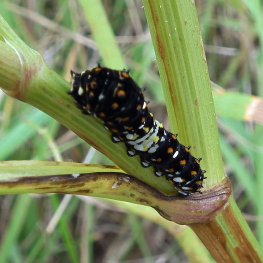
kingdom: Animalia
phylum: Arthropoda
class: Insecta
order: Lepidoptera
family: Papilionidae
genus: Papilio
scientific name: Papilio polyxenes
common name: Black Swallowtail
